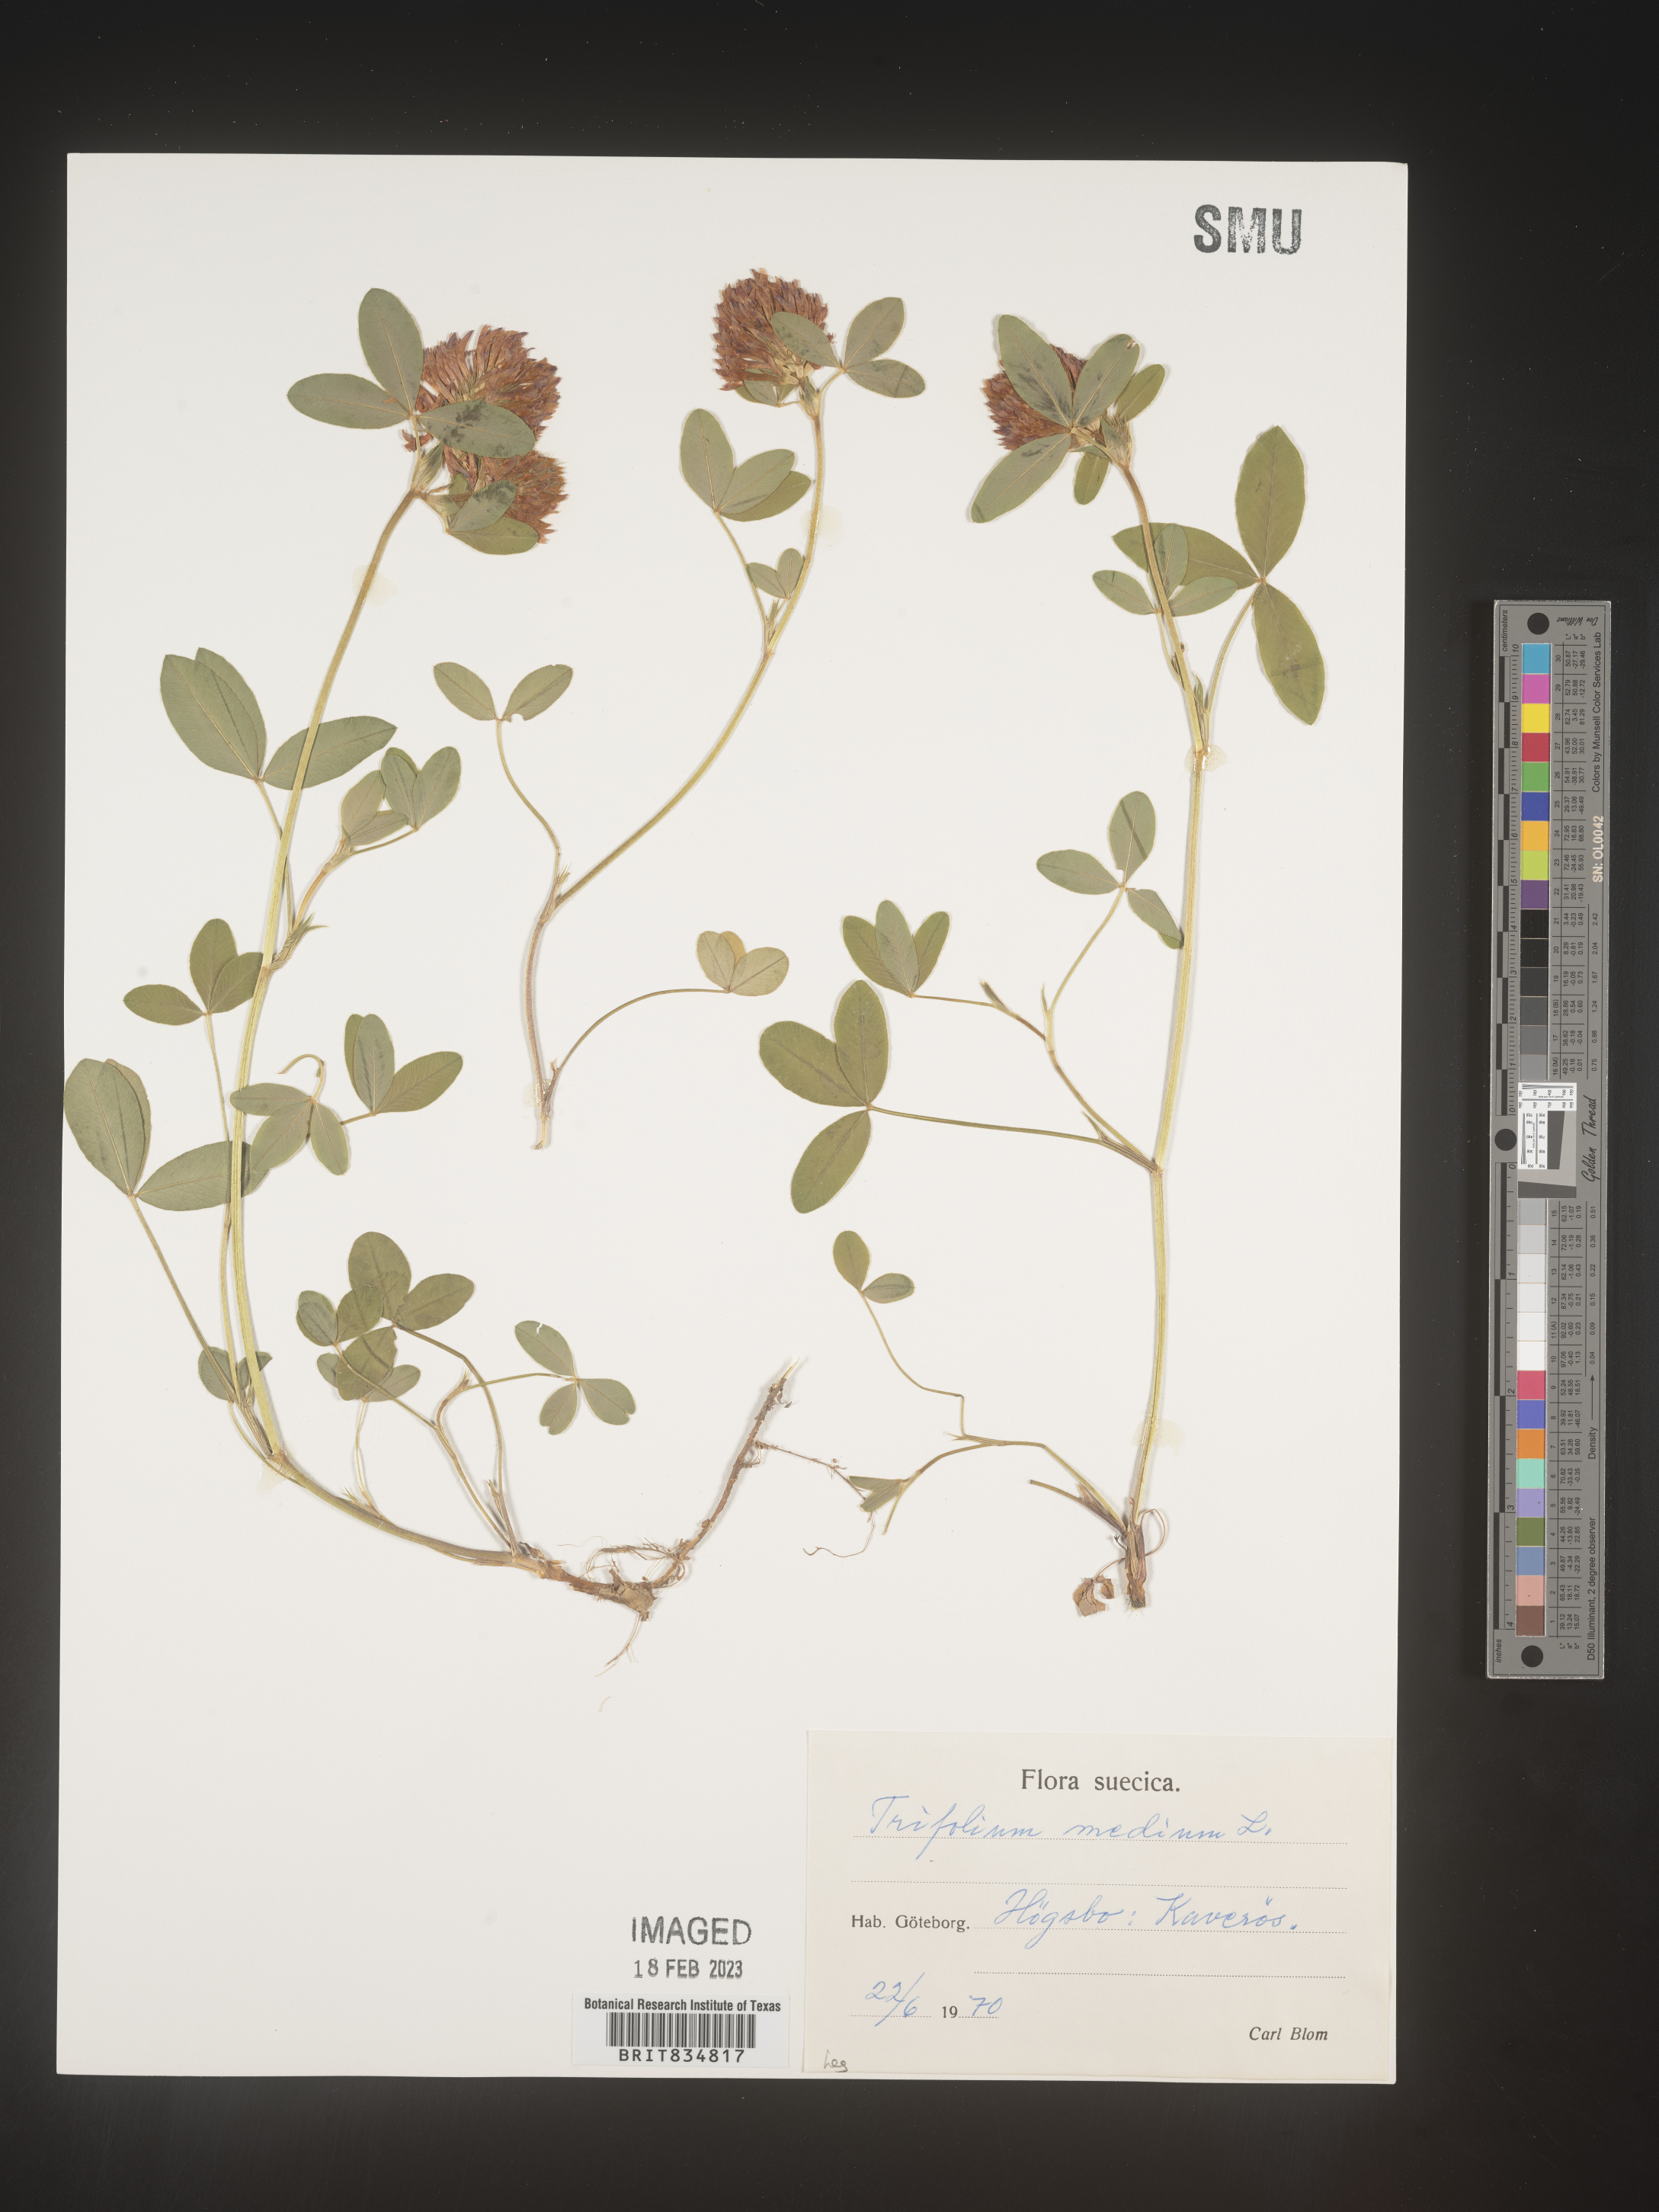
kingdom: Plantae
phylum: Tracheophyta
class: Magnoliopsida
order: Fabales
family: Fabaceae
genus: Trifolium
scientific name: Trifolium
